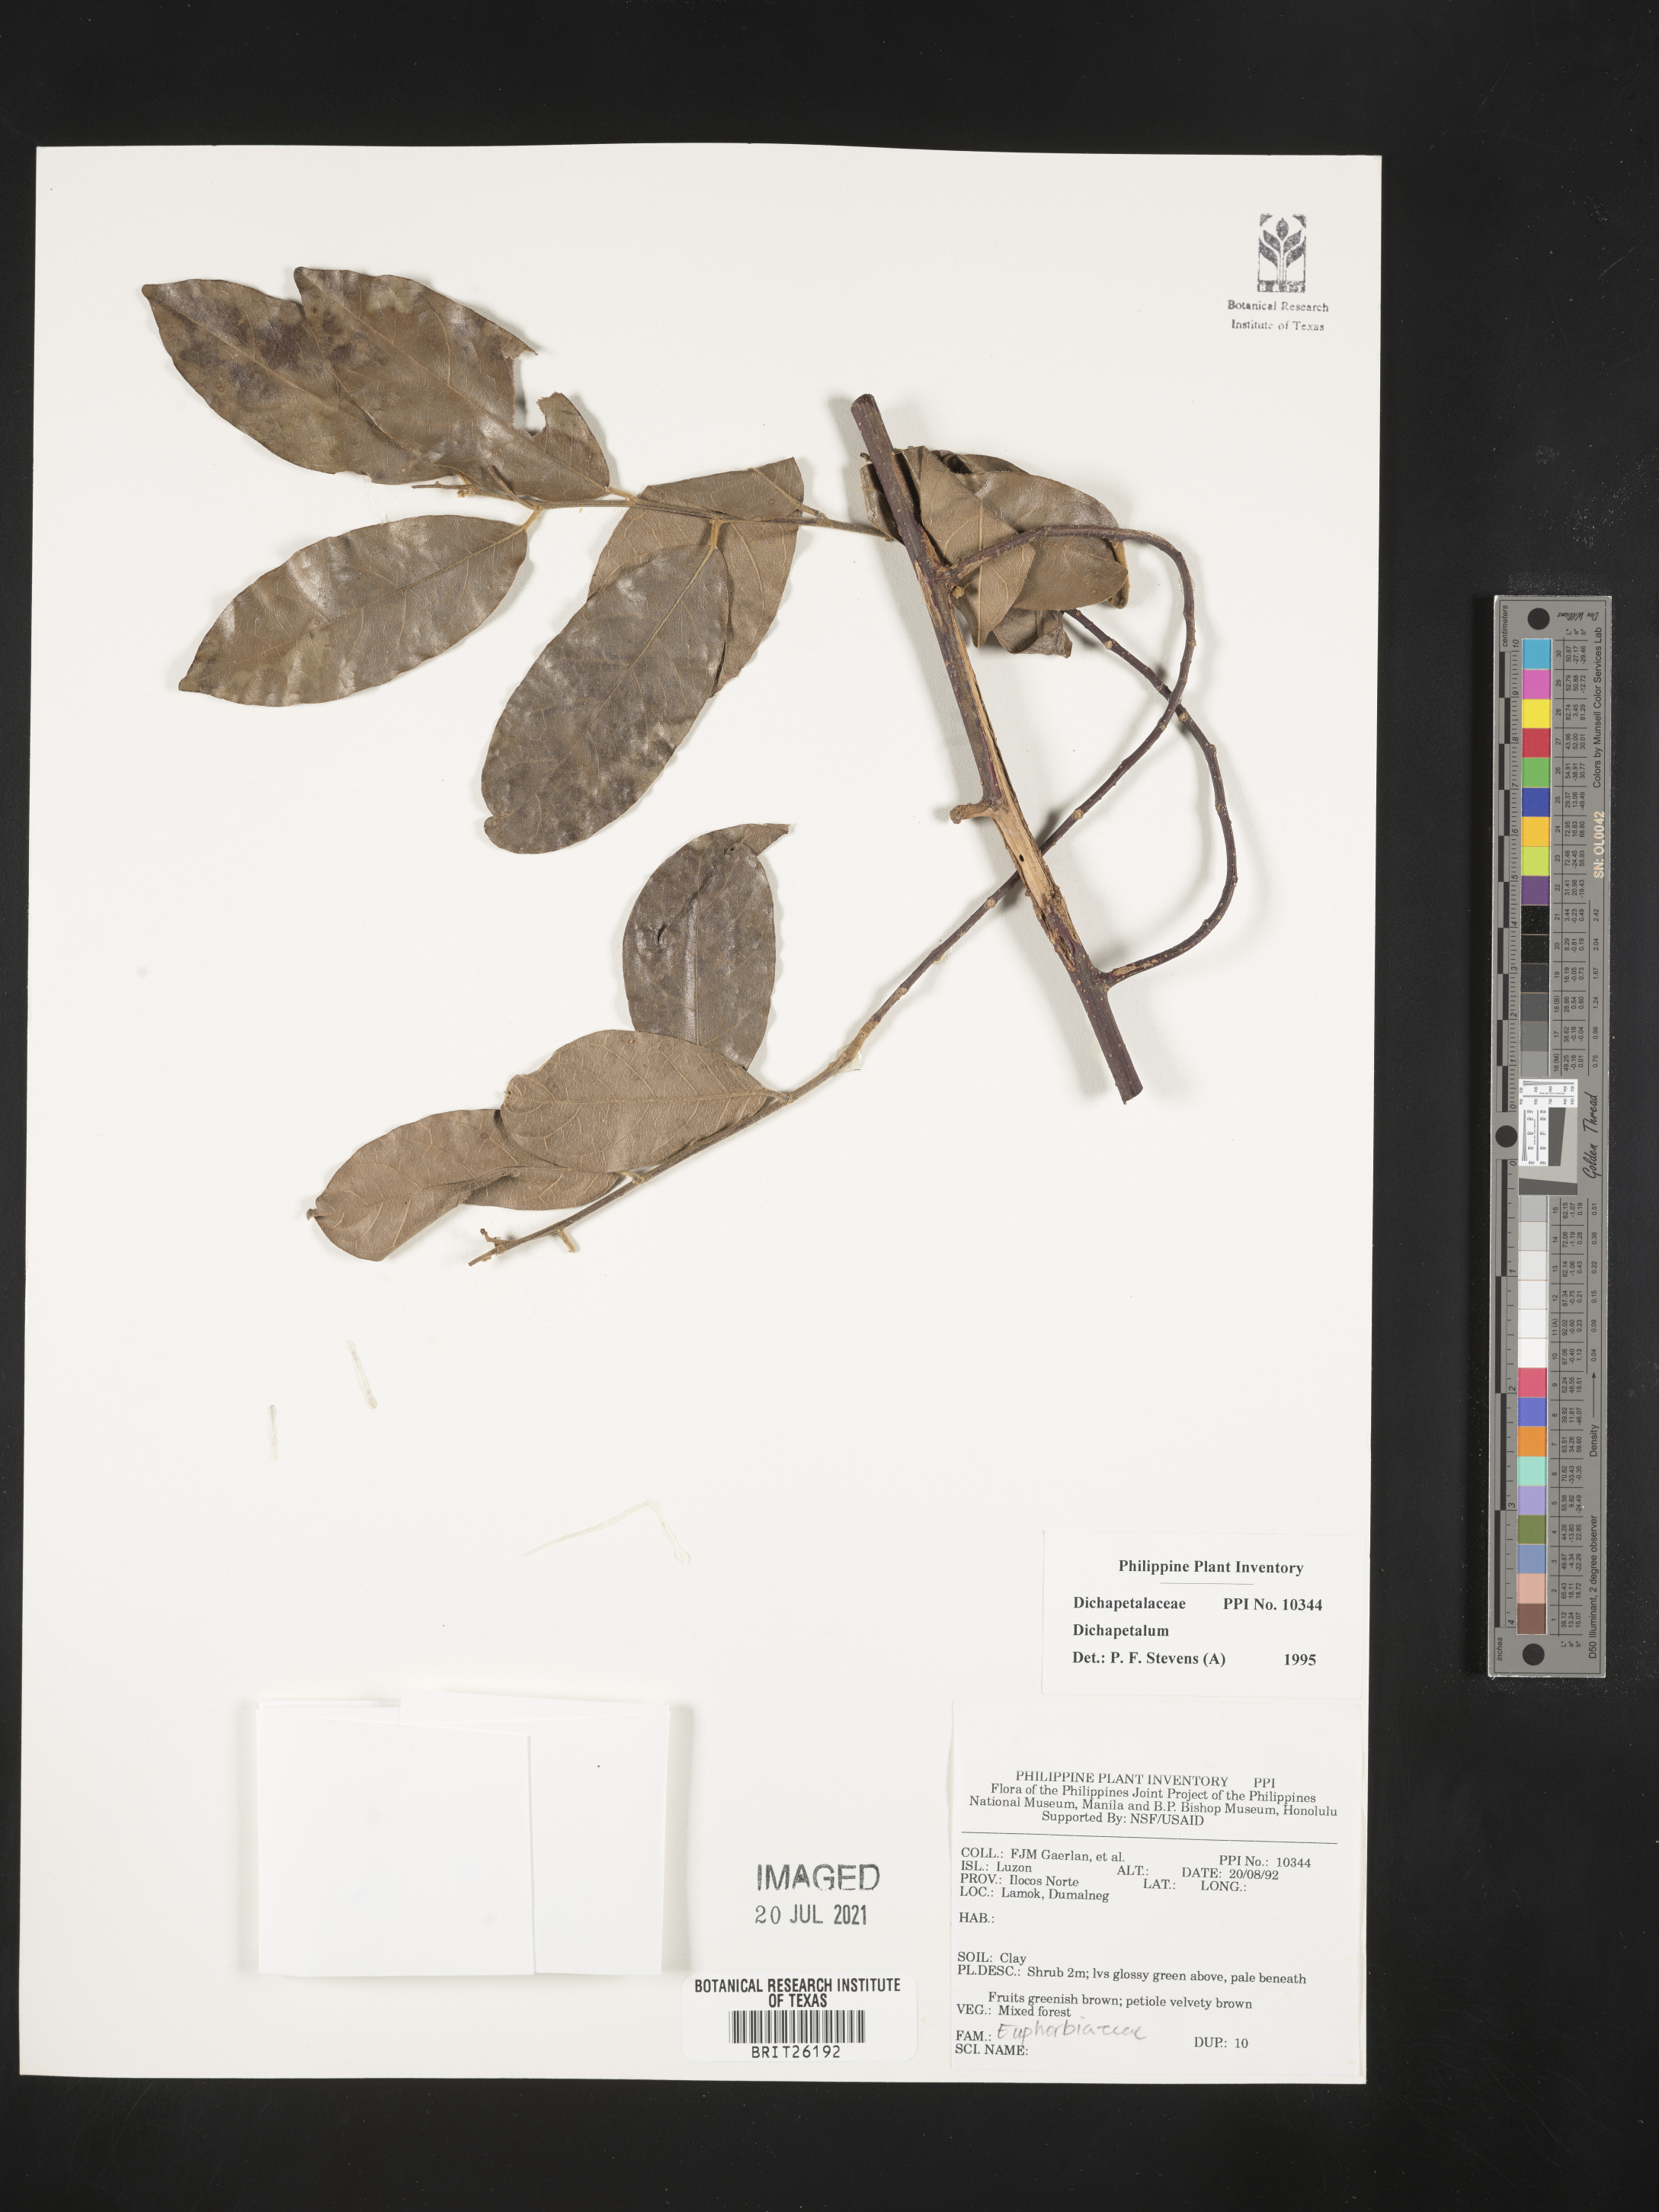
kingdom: Plantae
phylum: Tracheophyta
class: Magnoliopsida
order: Malpighiales
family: Dichapetalaceae
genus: Dichapetalum
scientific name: Dichapetalum
